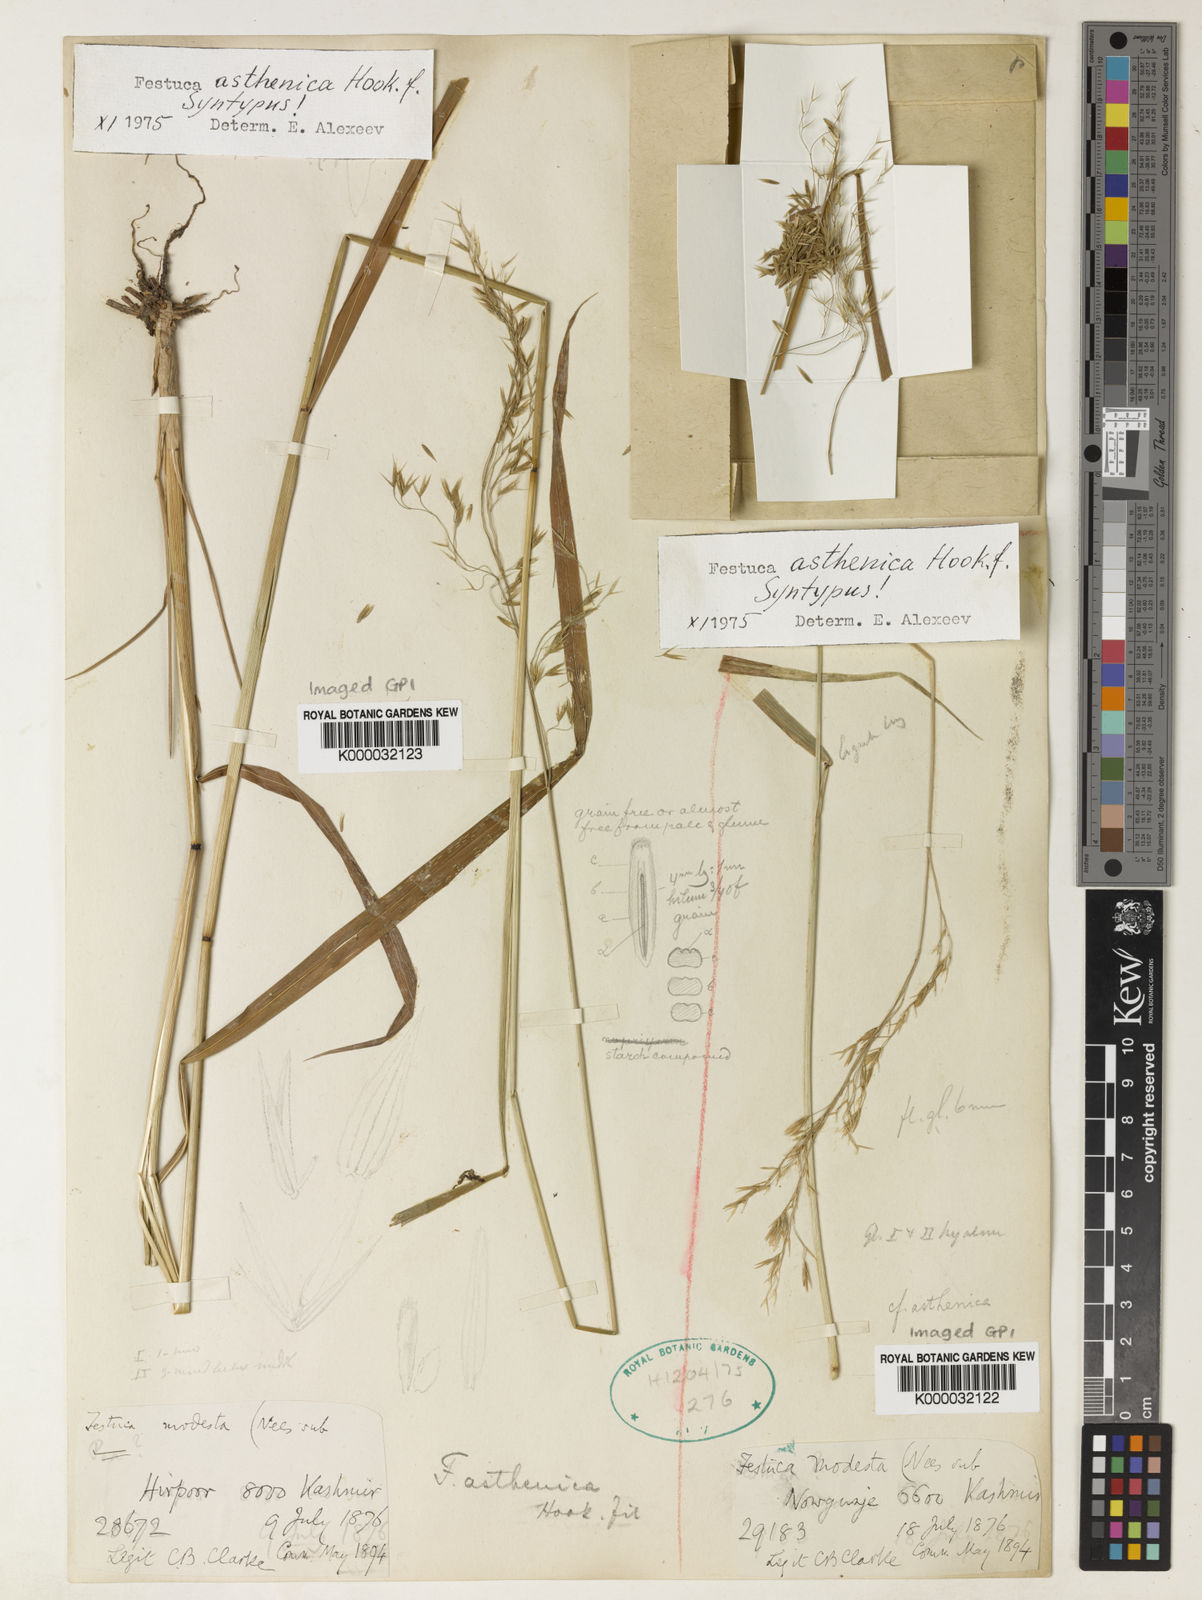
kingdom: Plantae
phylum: Tracheophyta
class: Liliopsida
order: Poales
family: Poaceae
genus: Festuca
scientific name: Festuca
